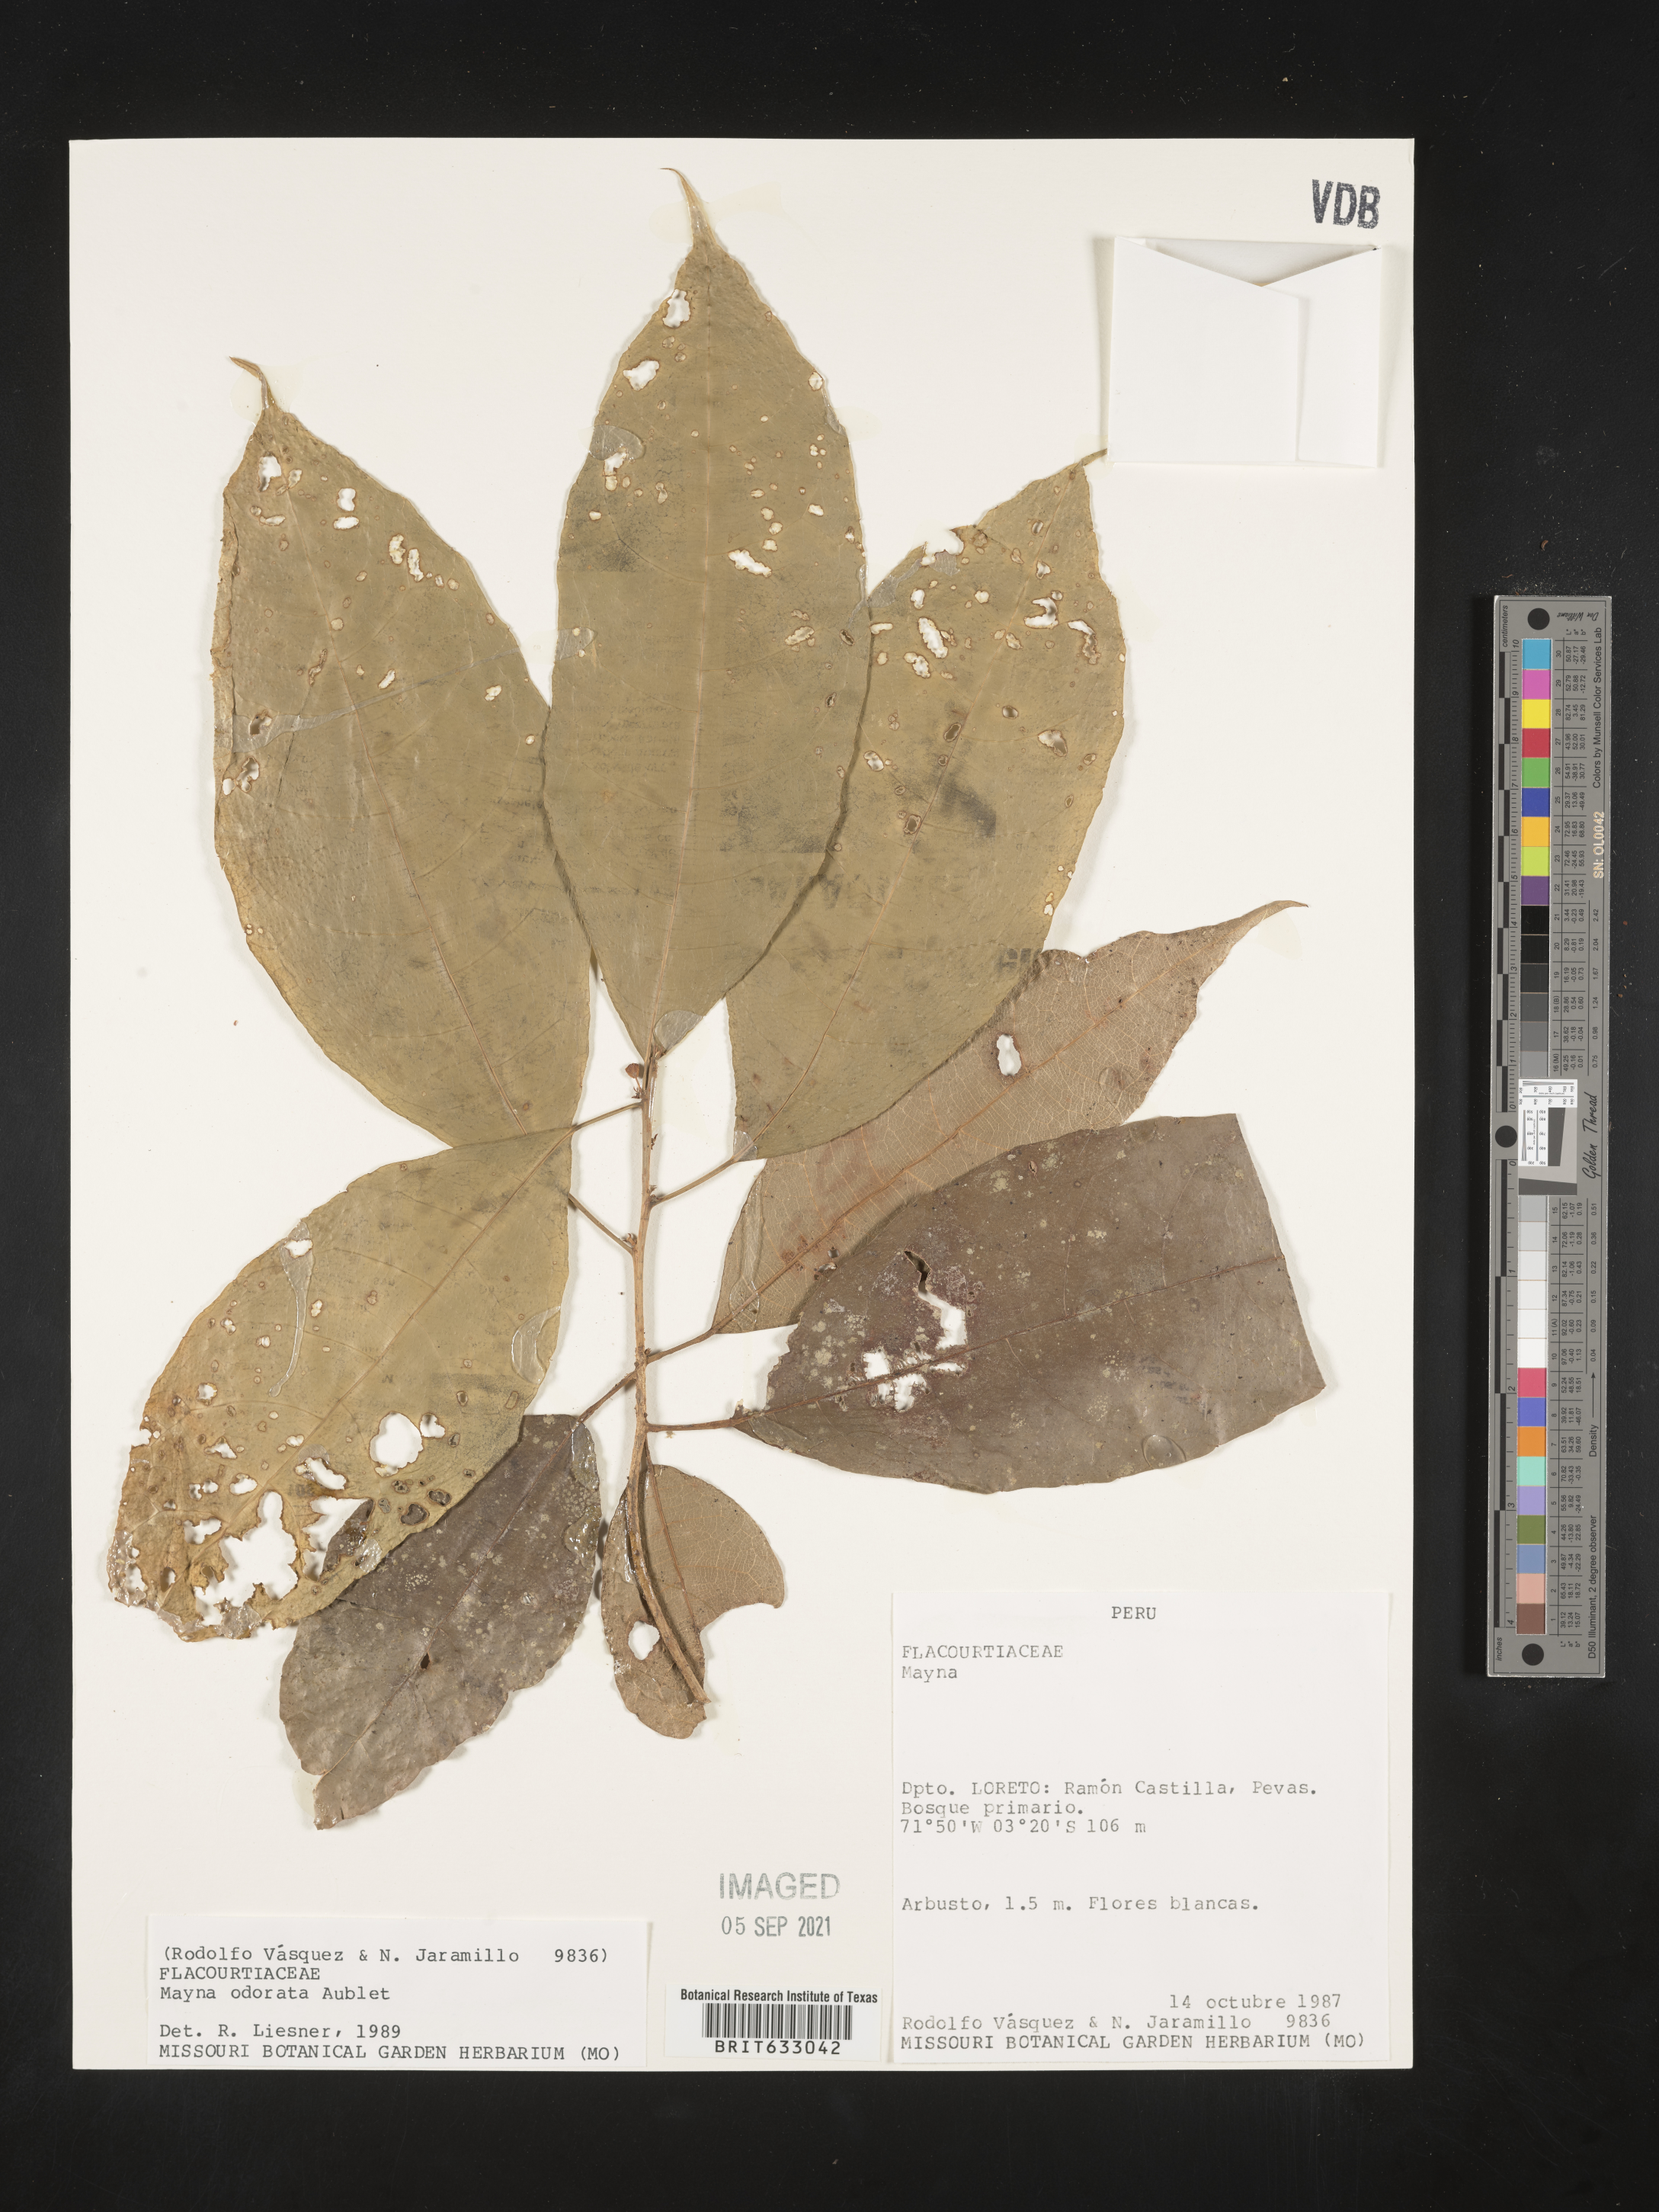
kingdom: Plantae
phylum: Tracheophyta
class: Magnoliopsida
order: Malpighiales
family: Achariaceae
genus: Mayna
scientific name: Mayna
